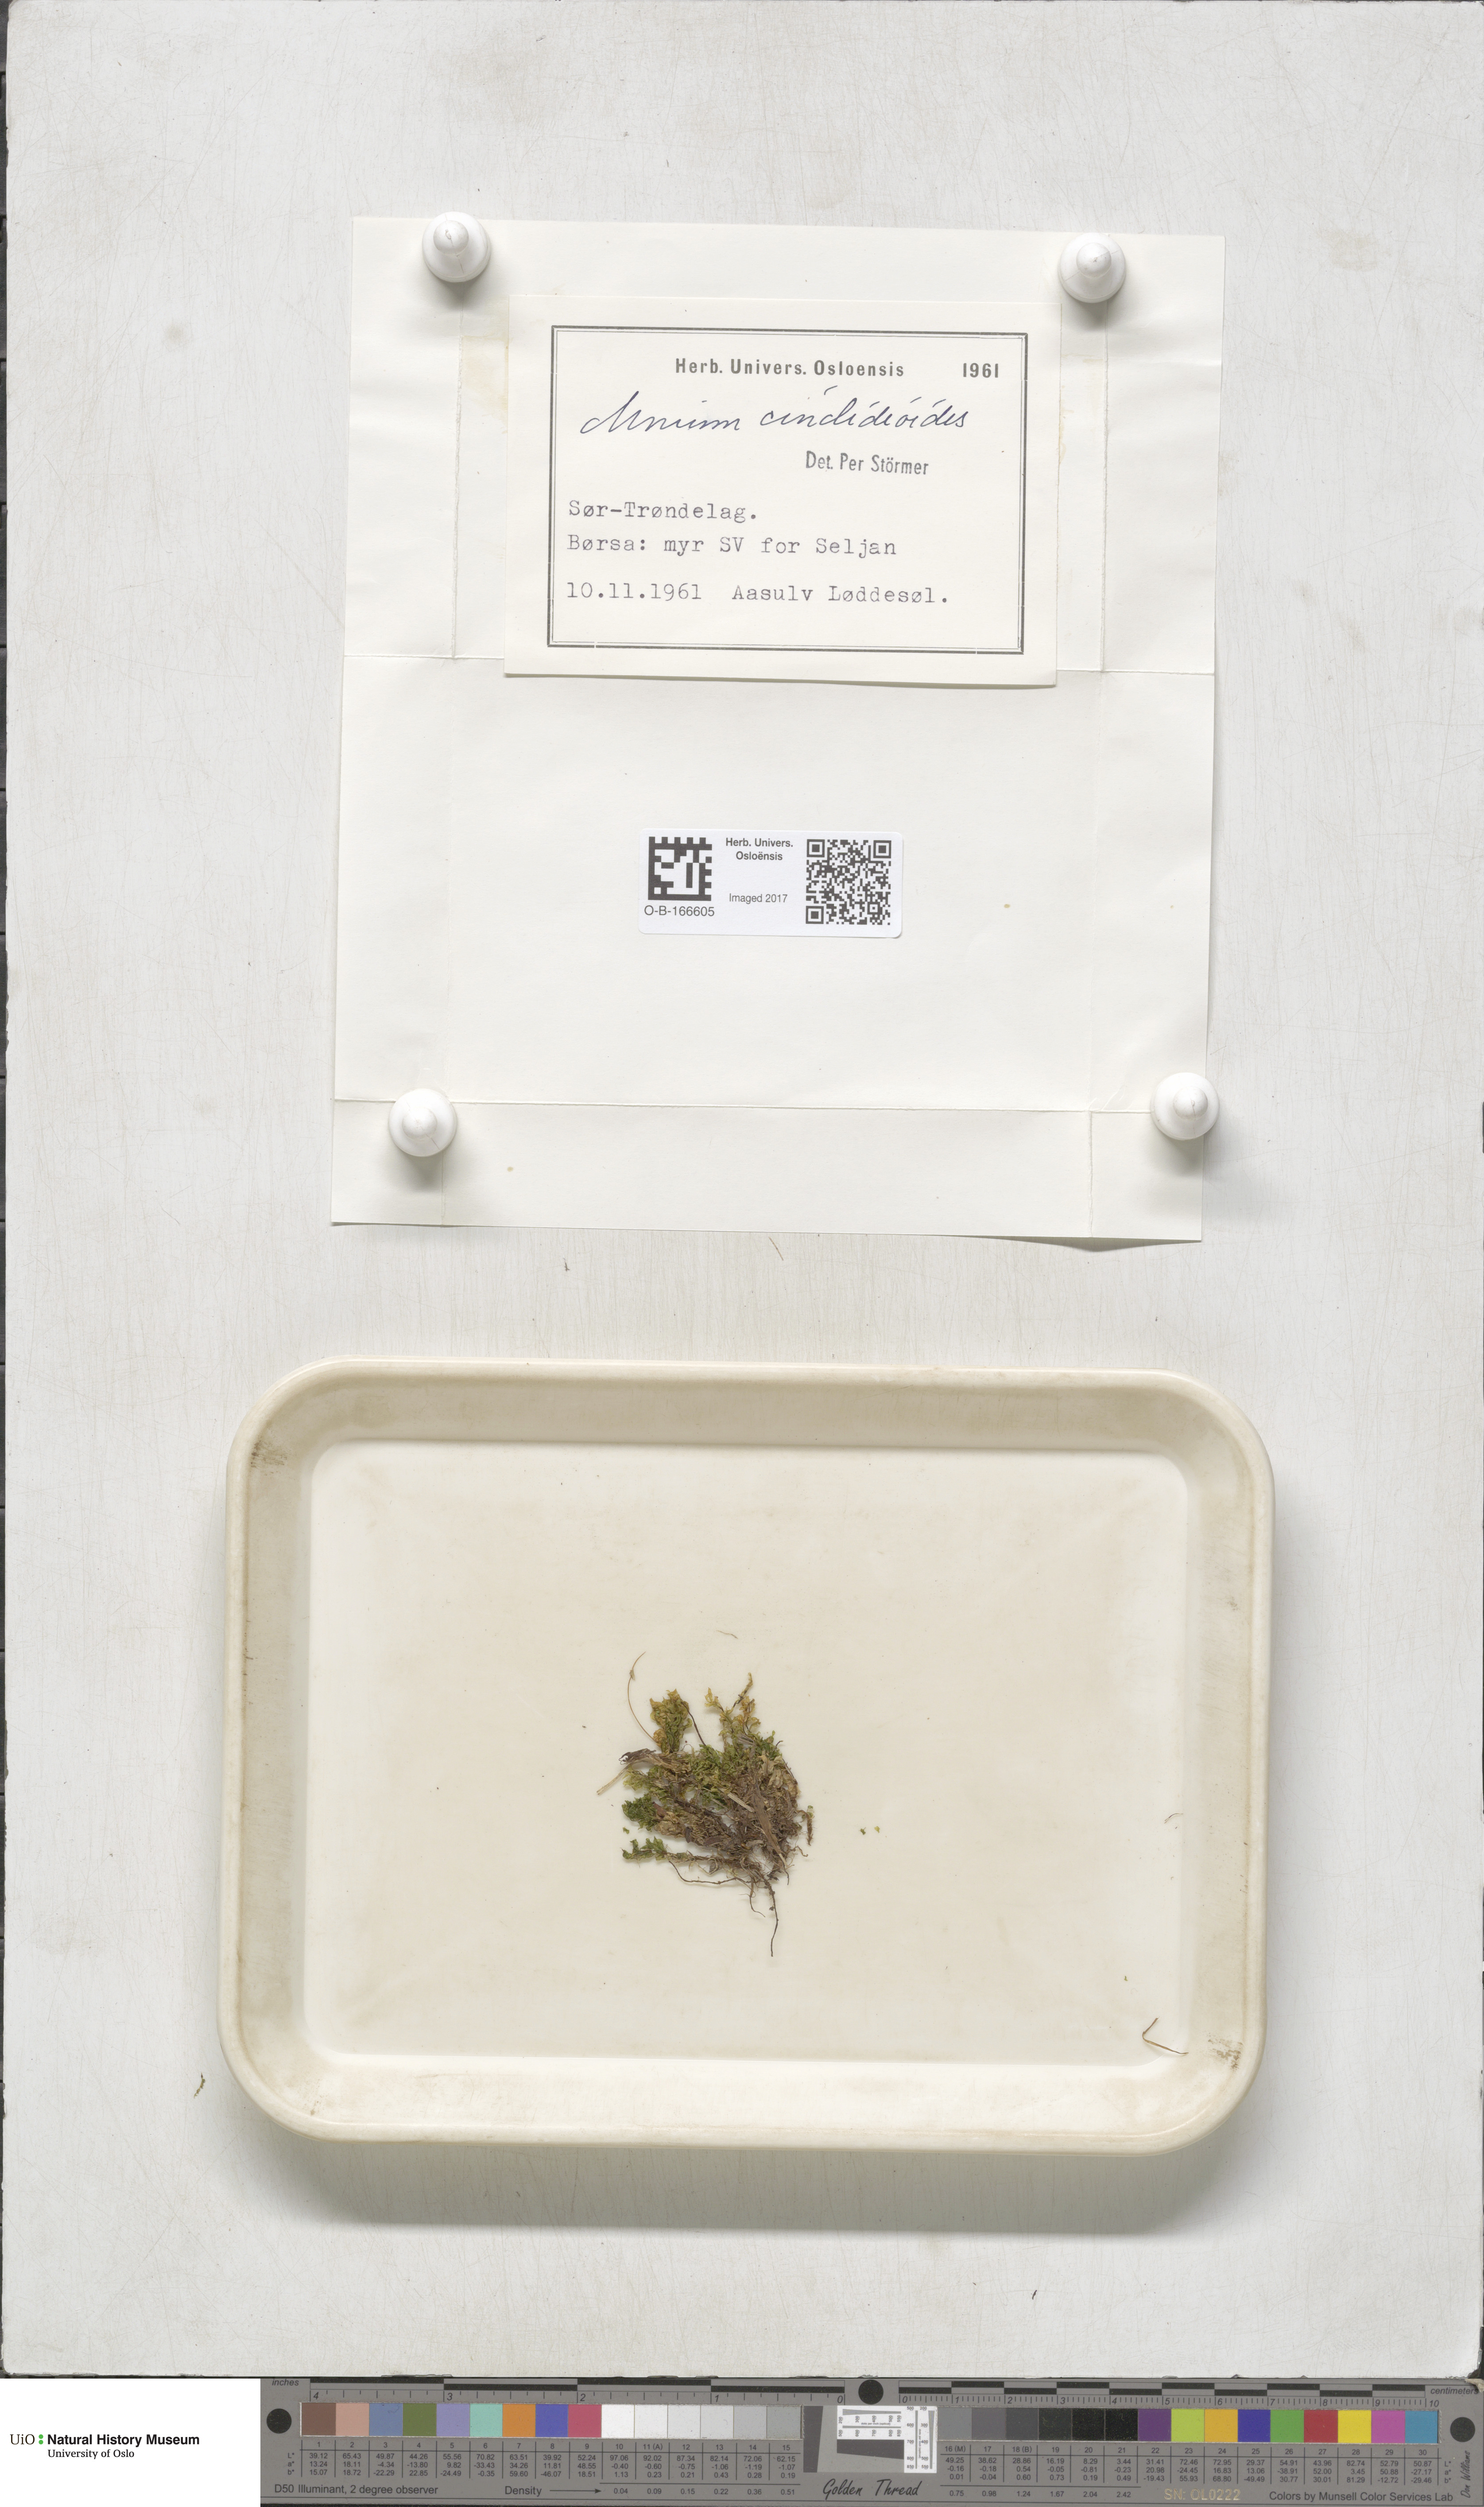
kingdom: Plantae
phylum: Bryophyta
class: Bryopsida
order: Bryales
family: Mniaceae
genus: Pseudobryum
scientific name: Pseudobryum cinclidioides
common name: River thyme moss
